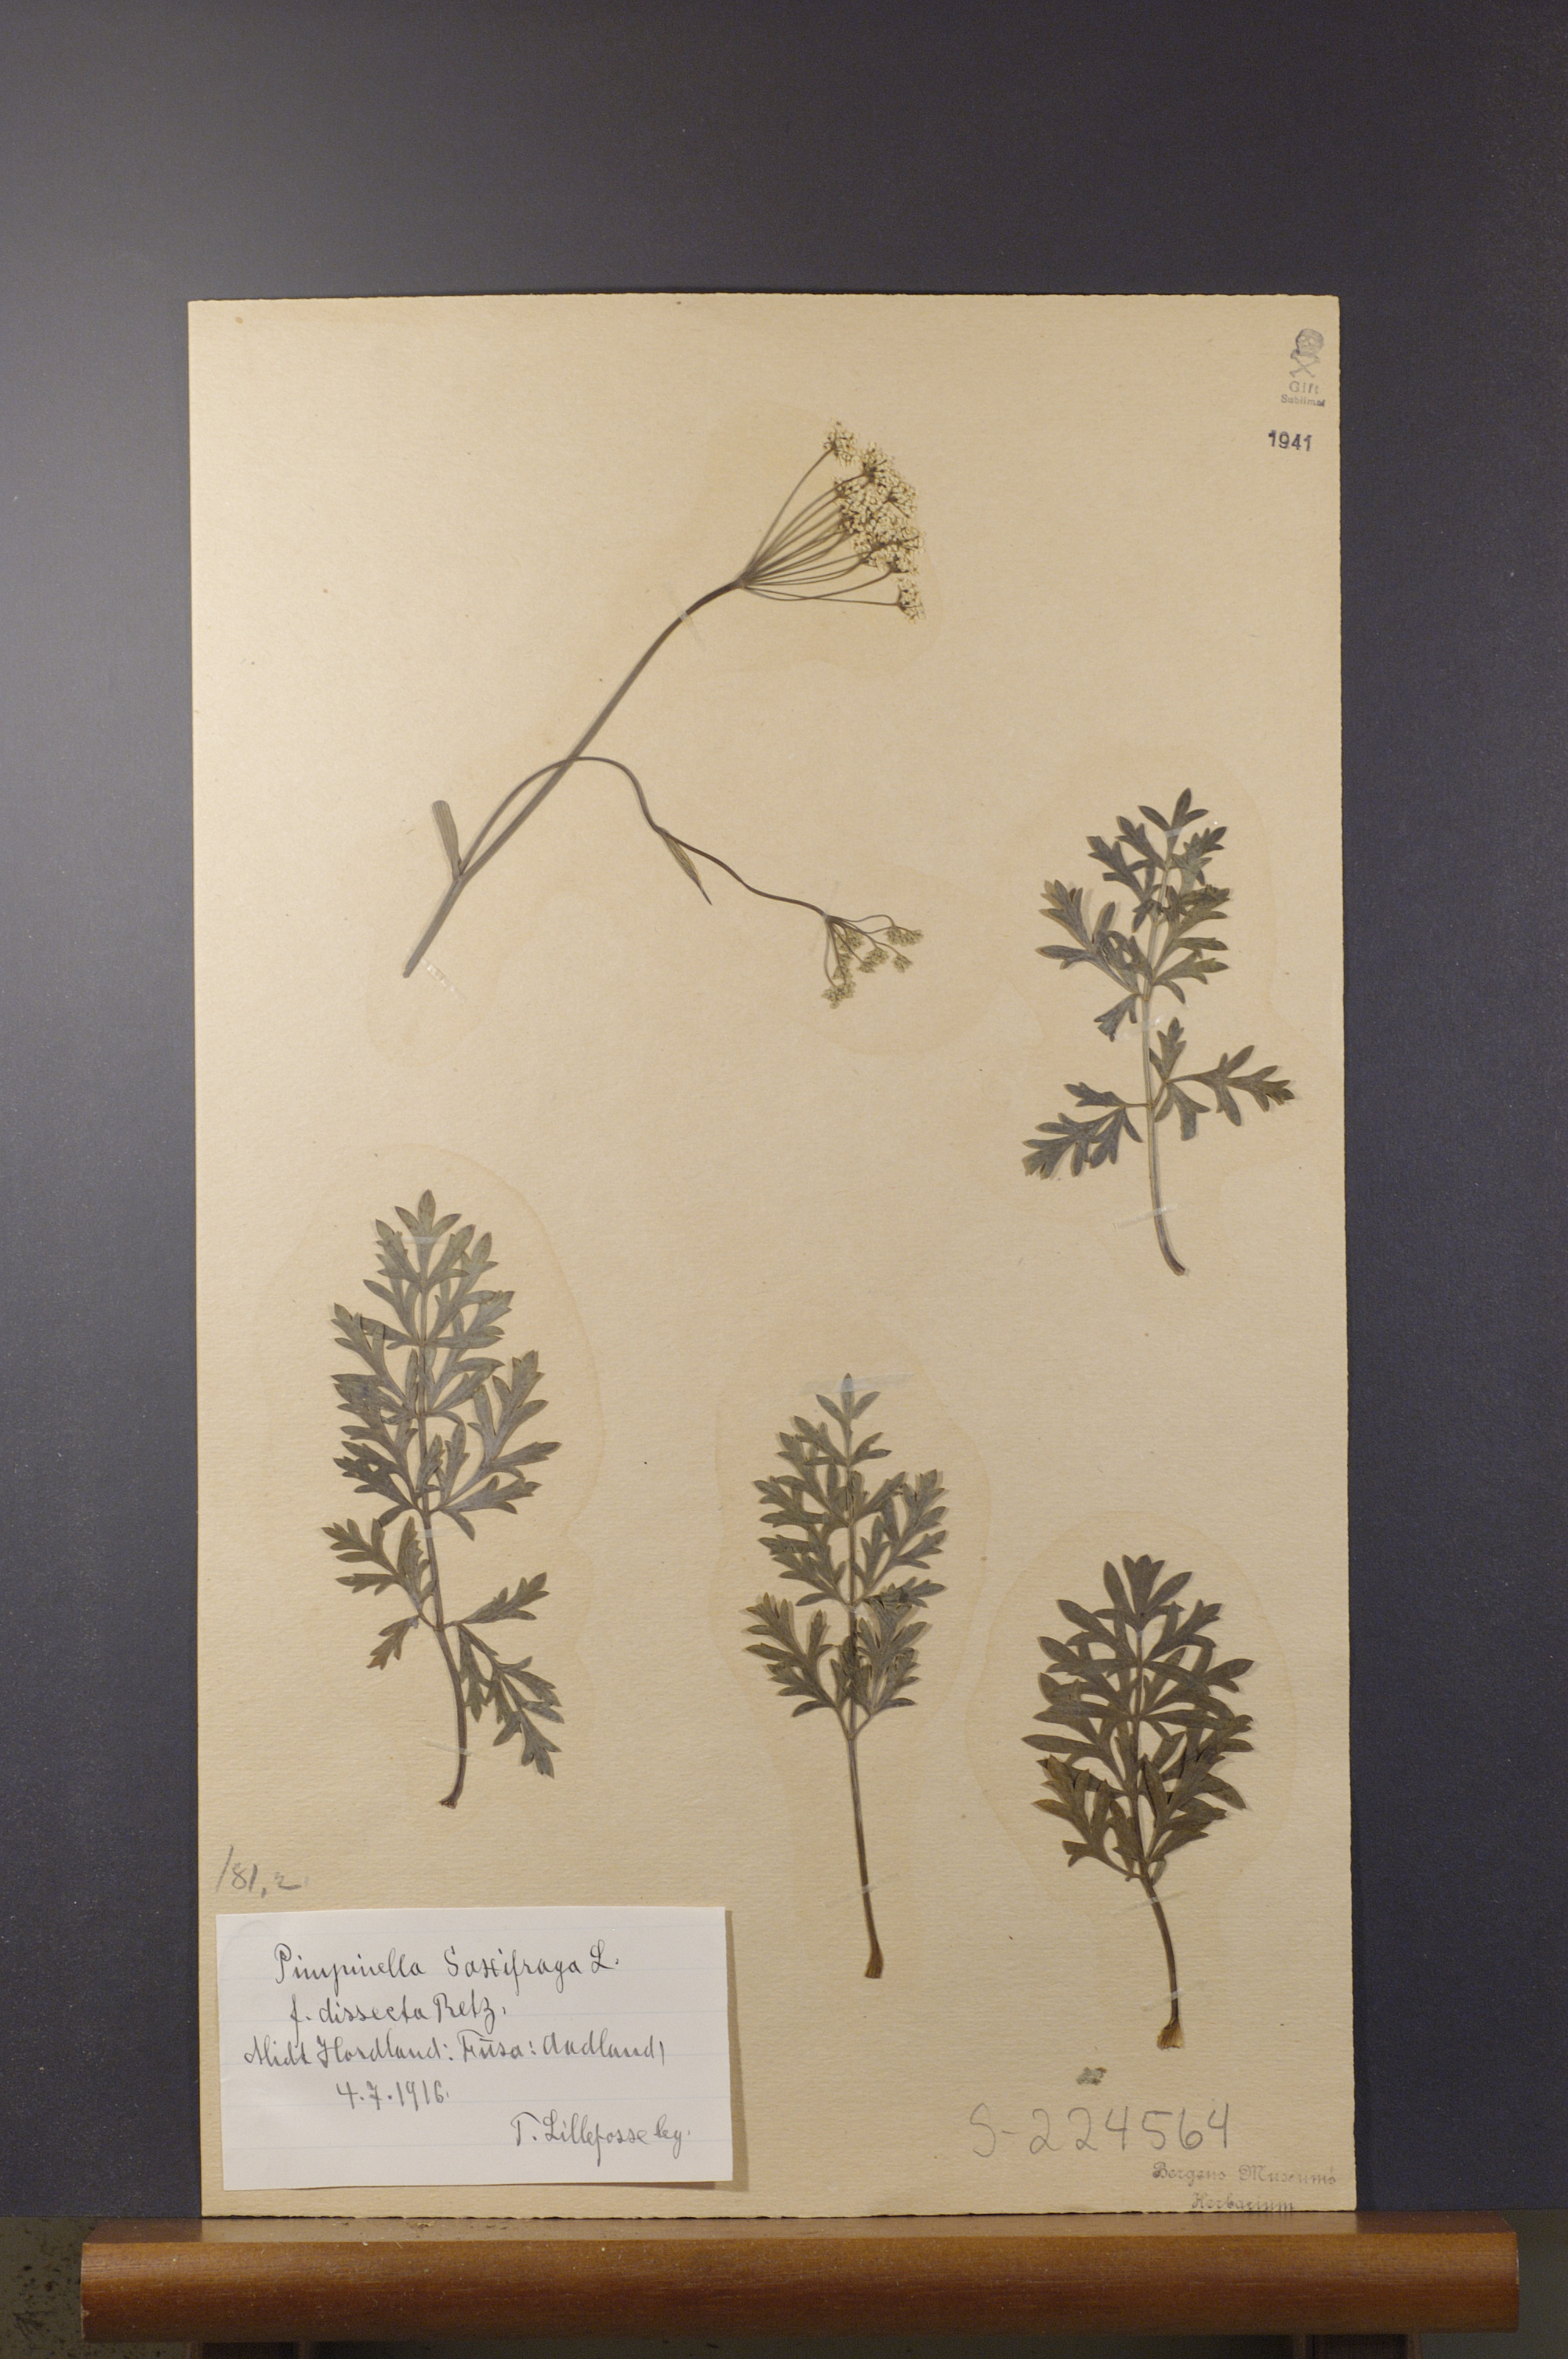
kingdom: Plantae
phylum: Tracheophyta
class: Magnoliopsida
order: Apiales
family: Apiaceae
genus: Pimpinella
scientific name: Pimpinella saxifraga
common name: Burnet-saxifrage
